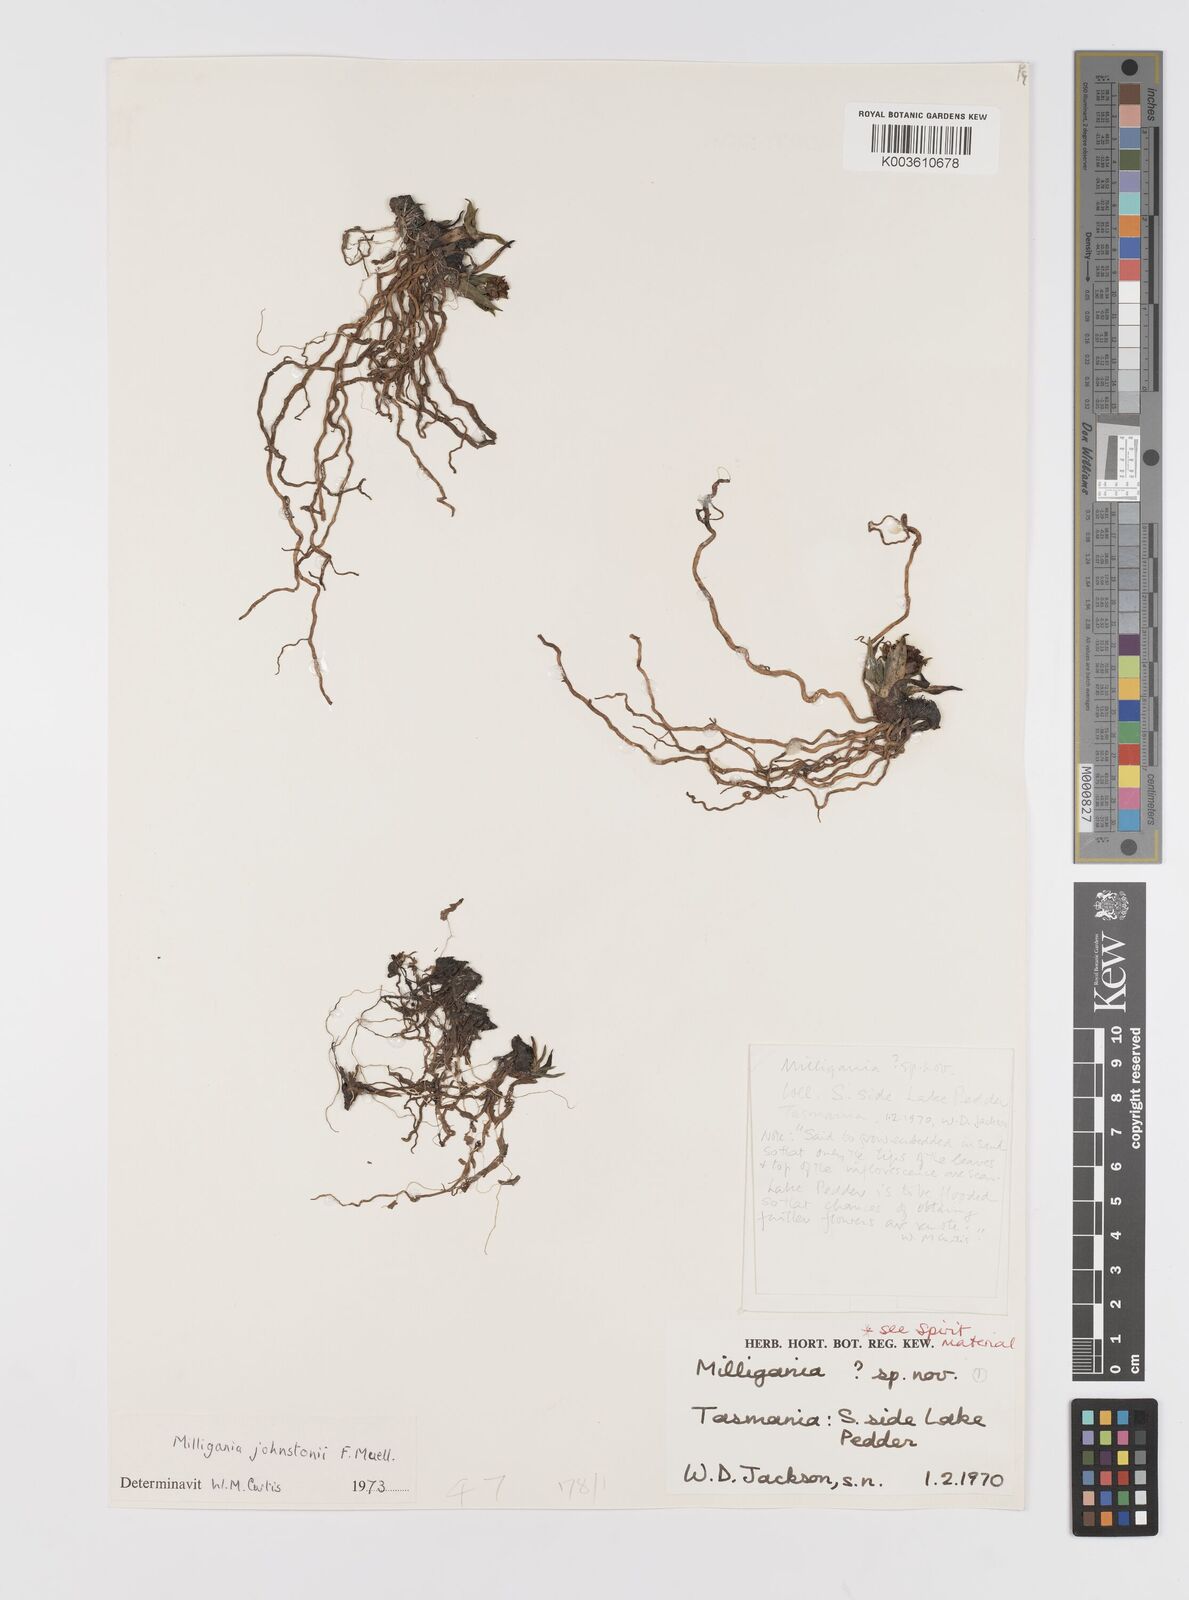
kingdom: Plantae
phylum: Tracheophyta
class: Liliopsida
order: Asparagales
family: Asteliaceae
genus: Milligania
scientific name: Milligania johnstonii
